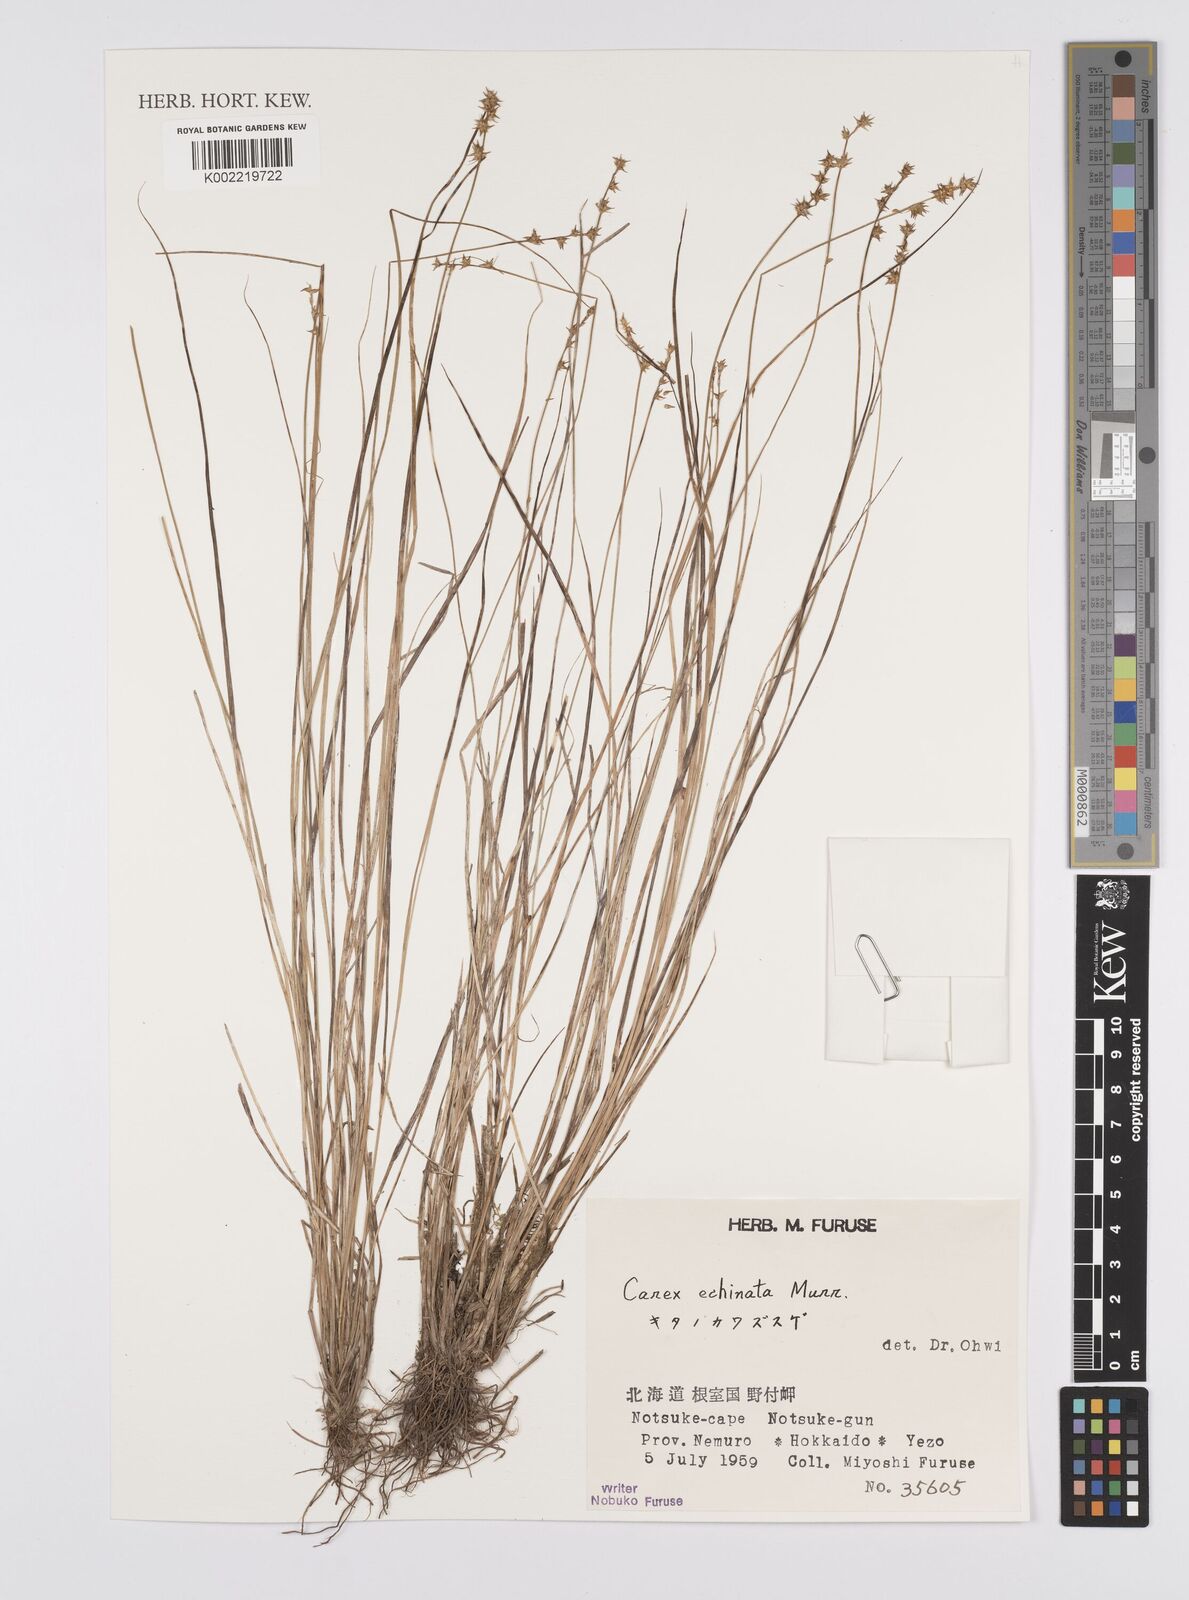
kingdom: Plantae
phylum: Tracheophyta
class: Liliopsida
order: Poales
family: Cyperaceae
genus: Carex
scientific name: Carex echinata
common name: Star sedge
